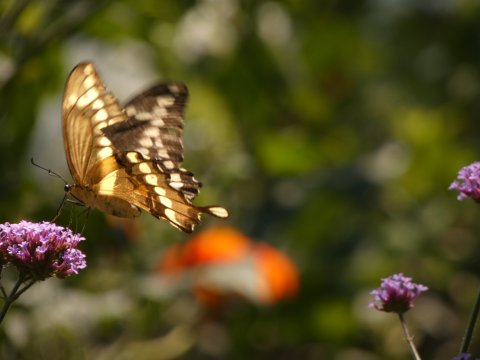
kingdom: Animalia
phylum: Arthropoda
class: Insecta
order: Lepidoptera
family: Papilionidae
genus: Papilio
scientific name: Papilio cresphontes
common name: Eastern Giant Swallowtail
